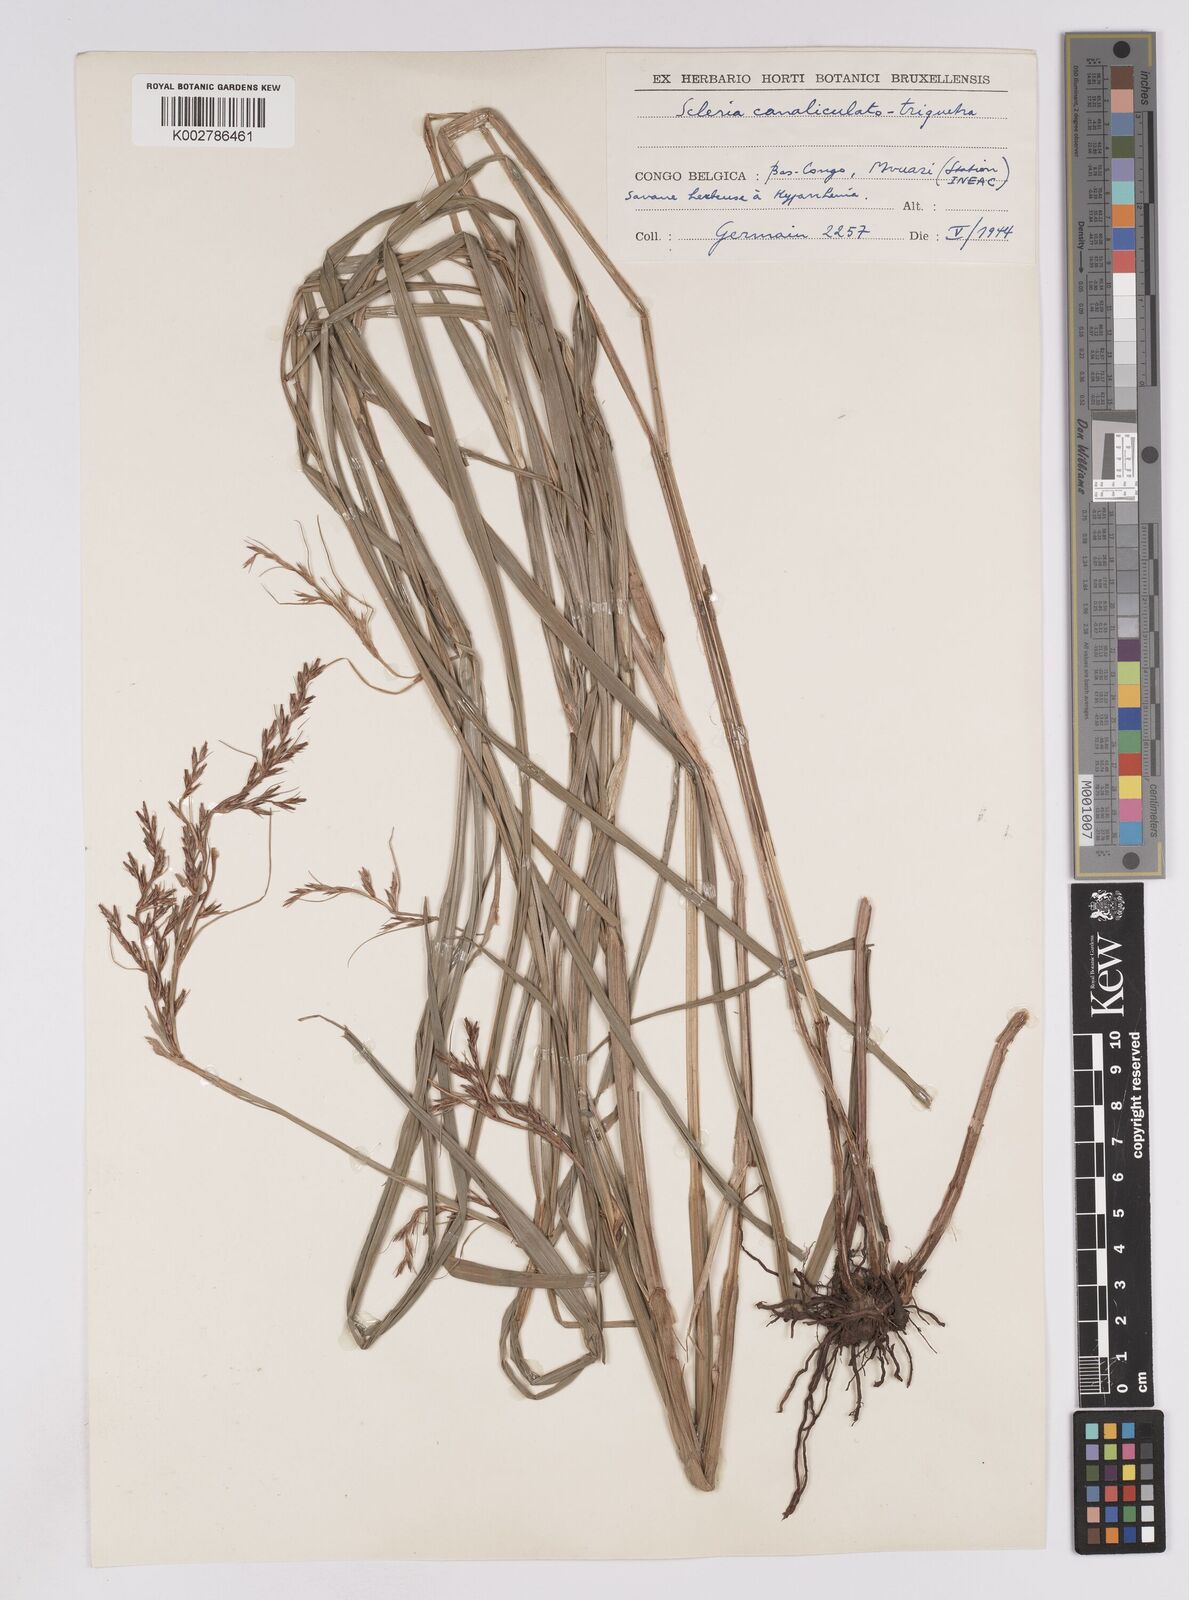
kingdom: Plantae
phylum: Tracheophyta
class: Liliopsida
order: Poales
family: Cyperaceae
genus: Scleria
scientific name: Scleria lagoensis
